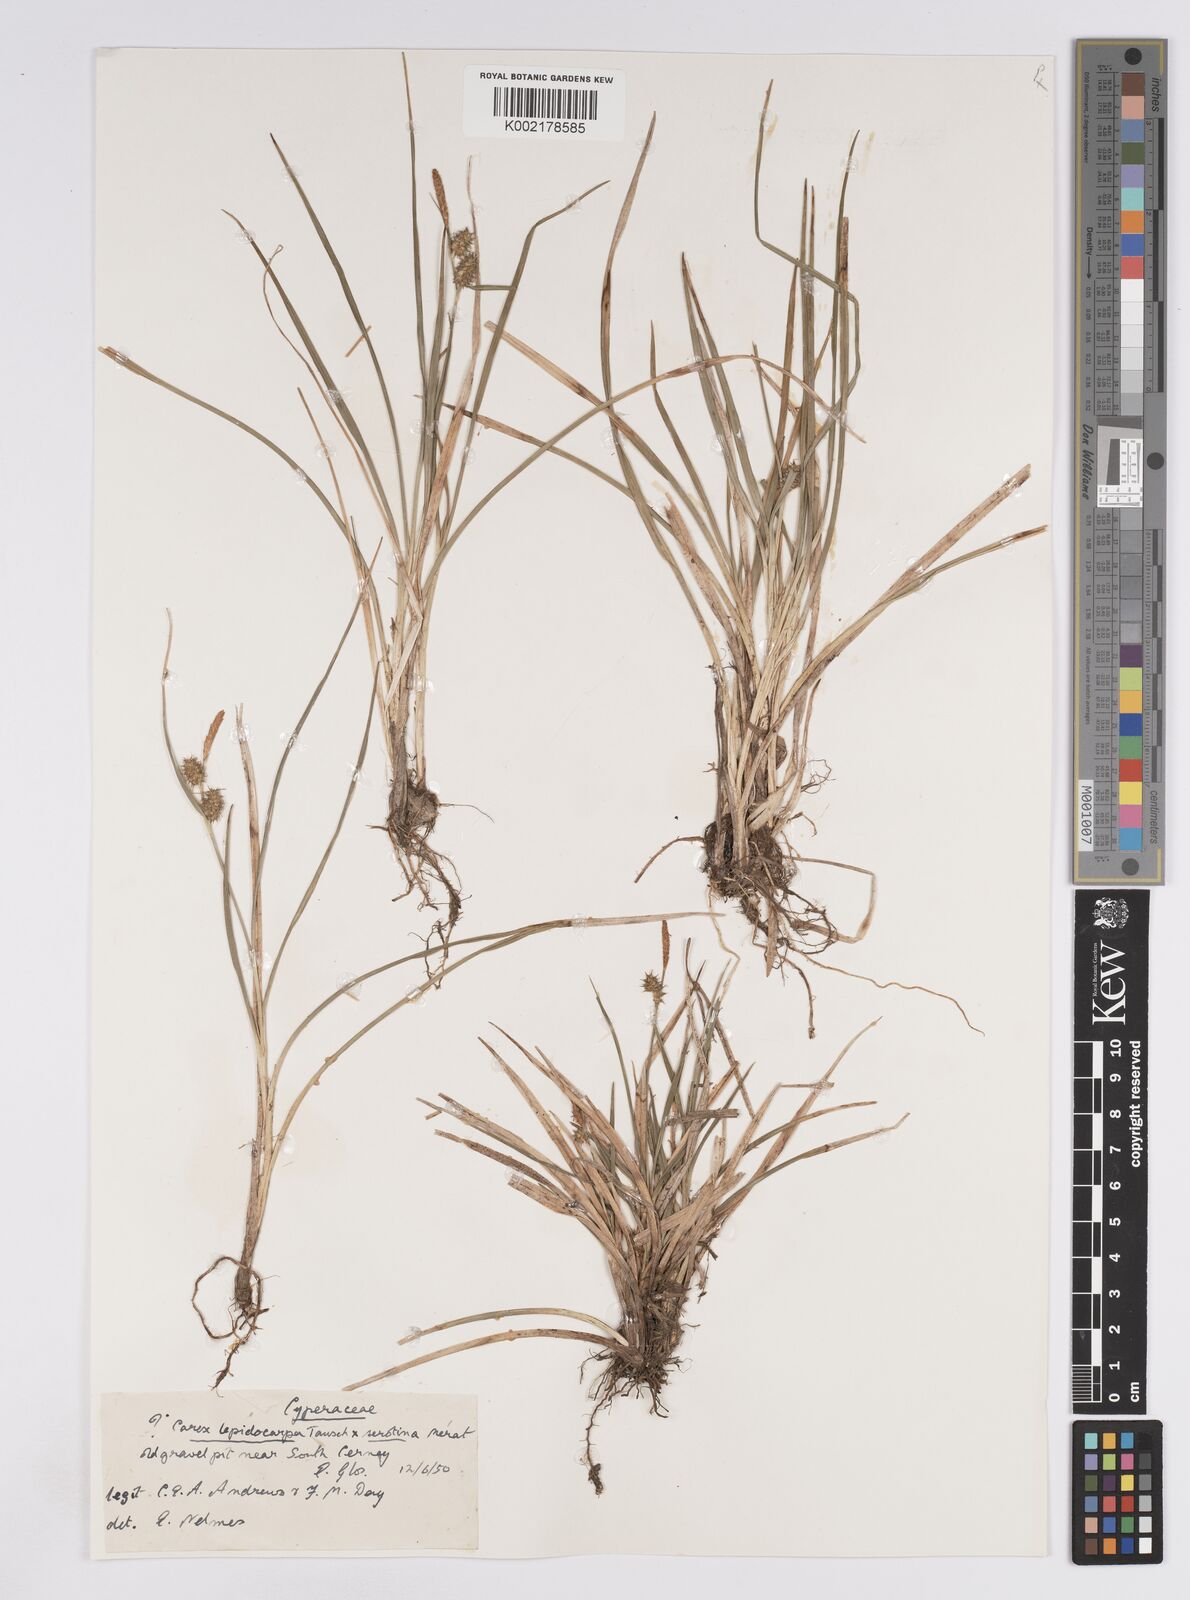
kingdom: Plantae
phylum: Tracheophyta
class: Liliopsida
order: Poales
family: Cyperaceae
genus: Carex
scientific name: Carex lepidocarpa
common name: Long-stalked yellow-sedge
